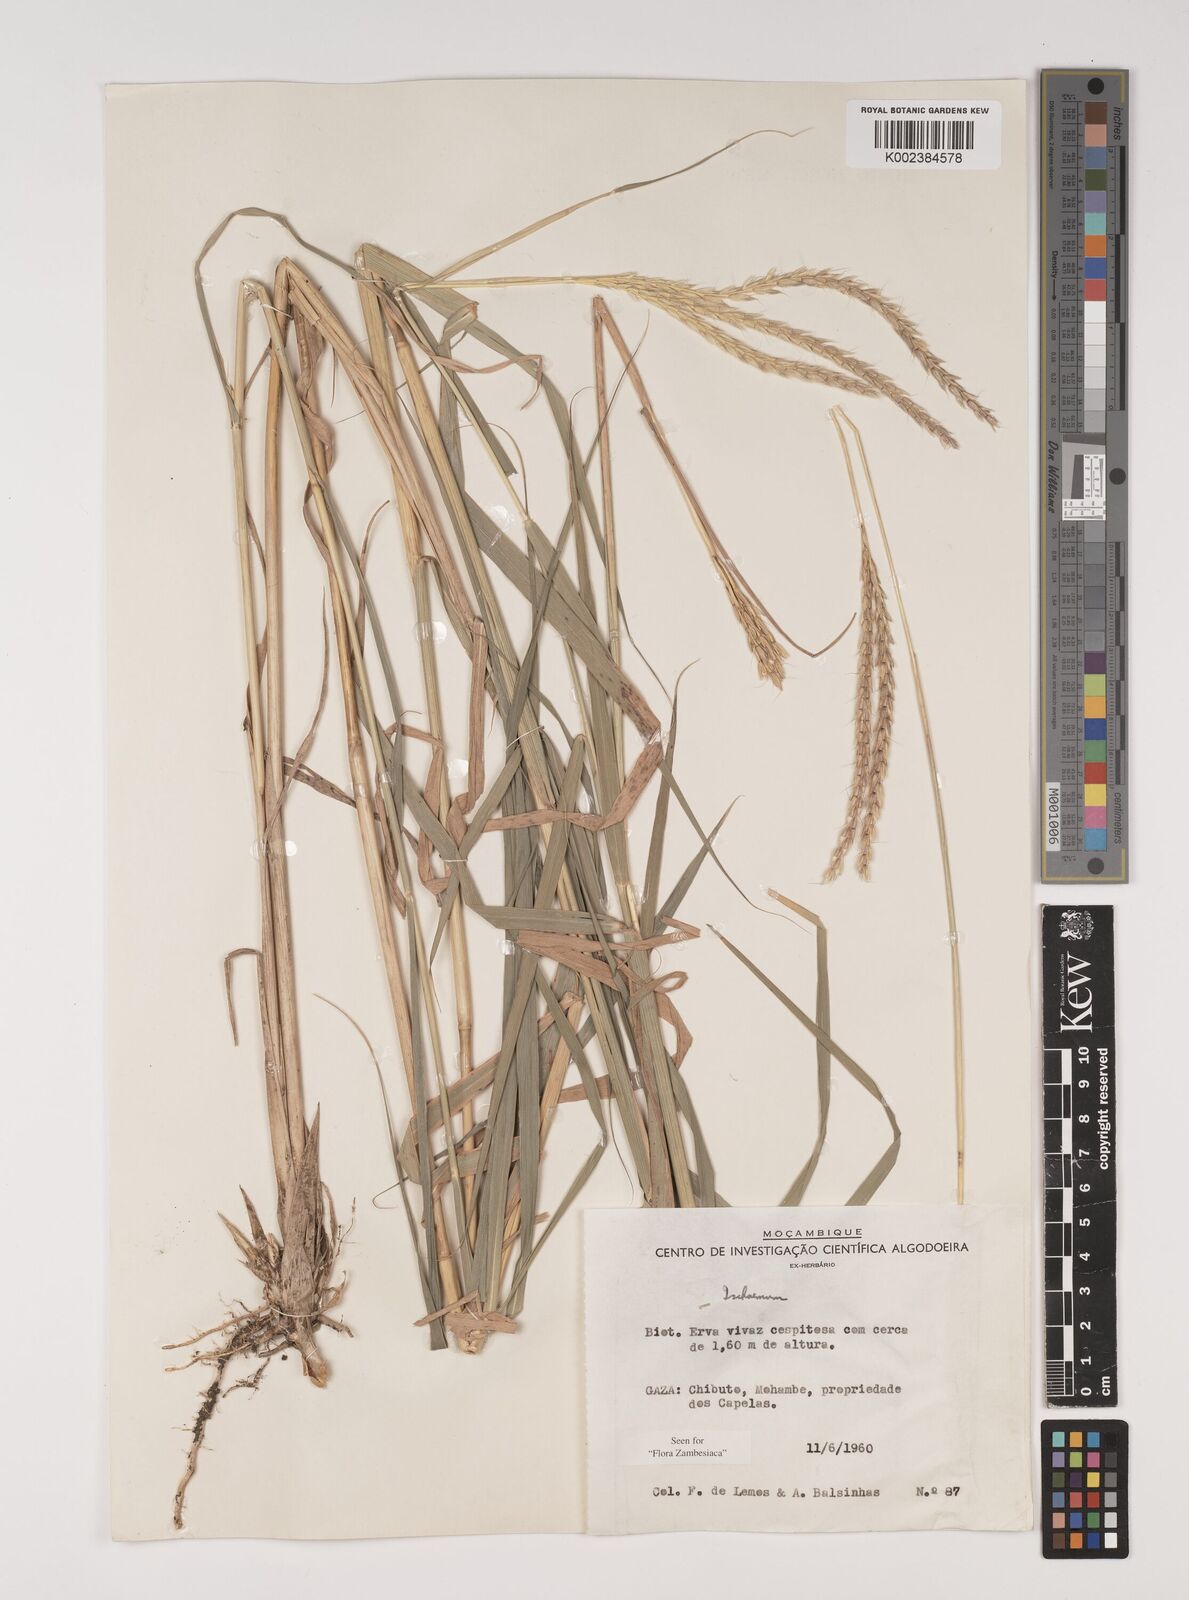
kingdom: Plantae
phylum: Tracheophyta
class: Liliopsida
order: Poales
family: Poaceae
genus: Ischaemum
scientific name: Ischaemum afrum
